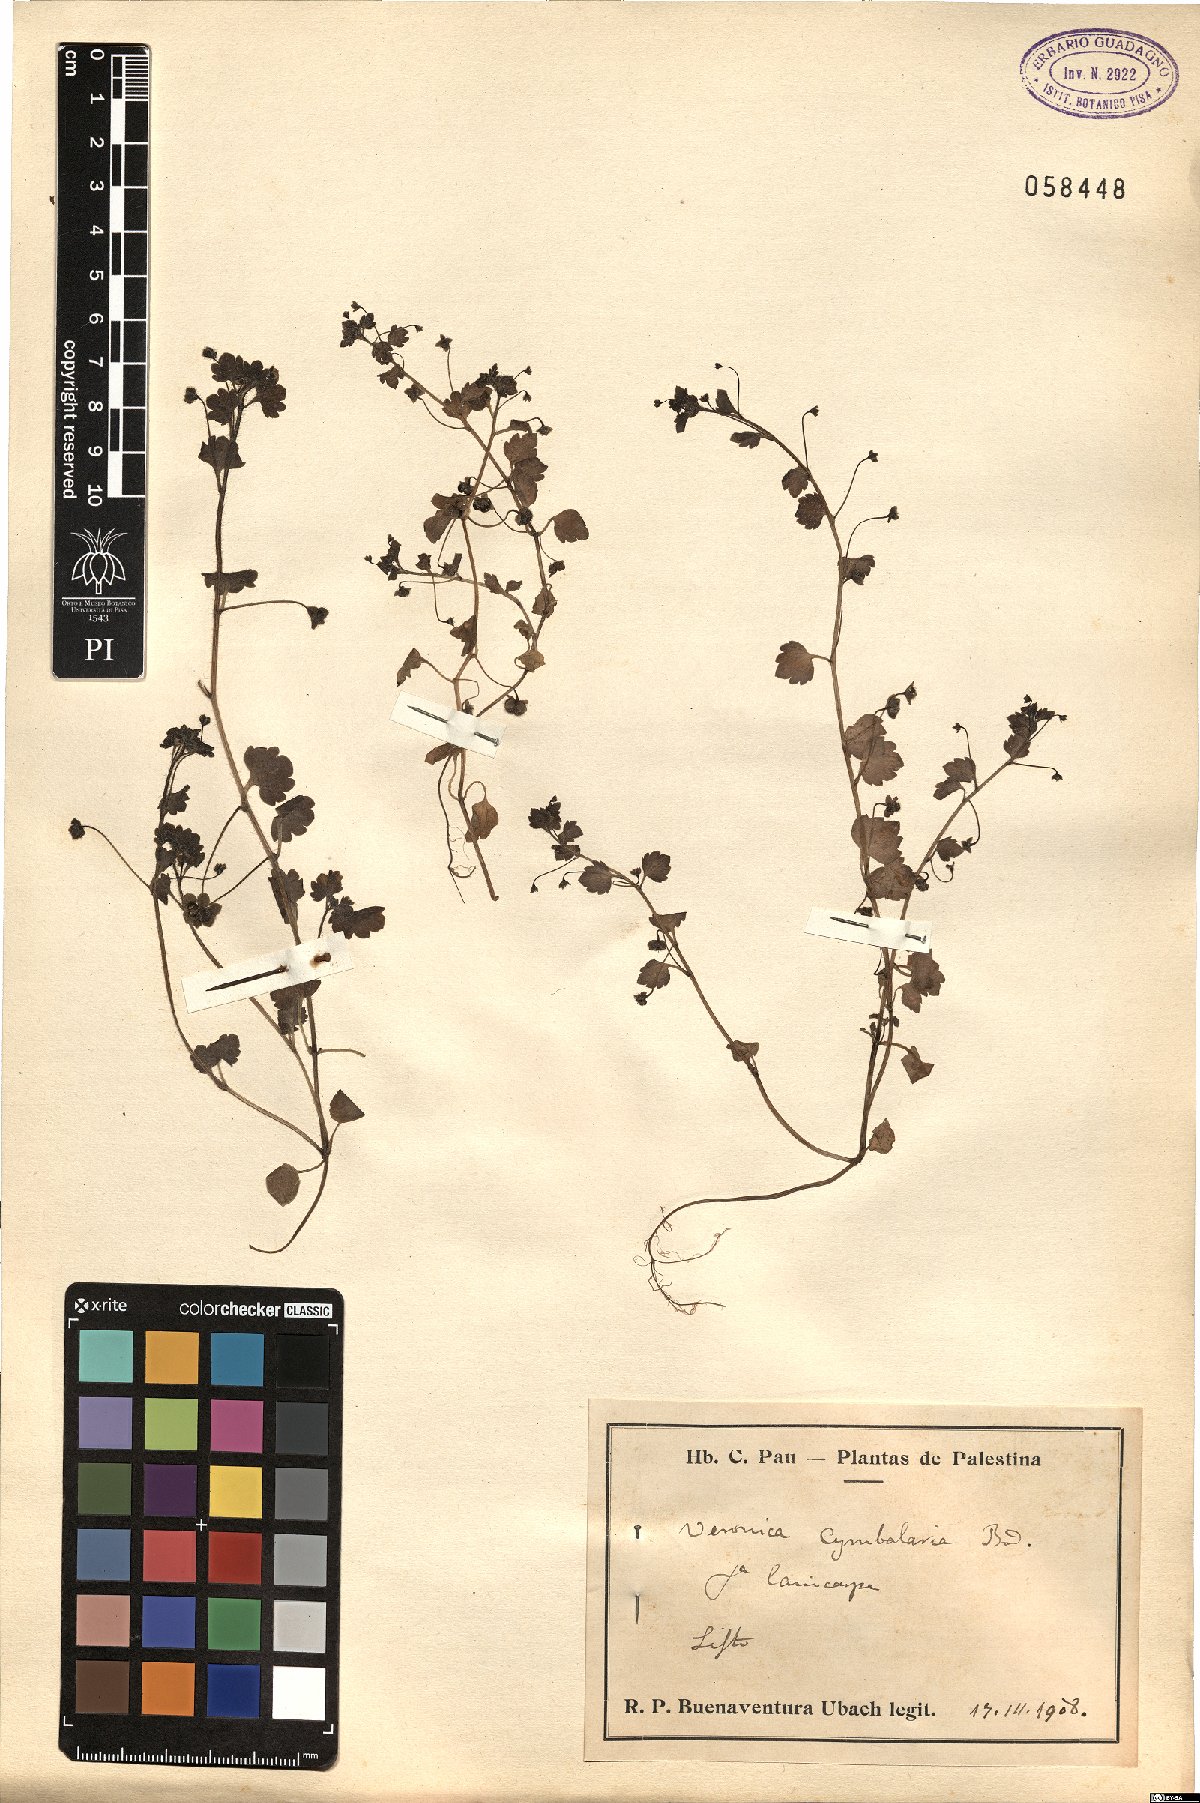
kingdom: Plantae
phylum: Tracheophyta
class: Magnoliopsida
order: Lamiales
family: Plantaginaceae
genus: Veronica
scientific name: Veronica cymbalaria
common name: Pale speedwell
